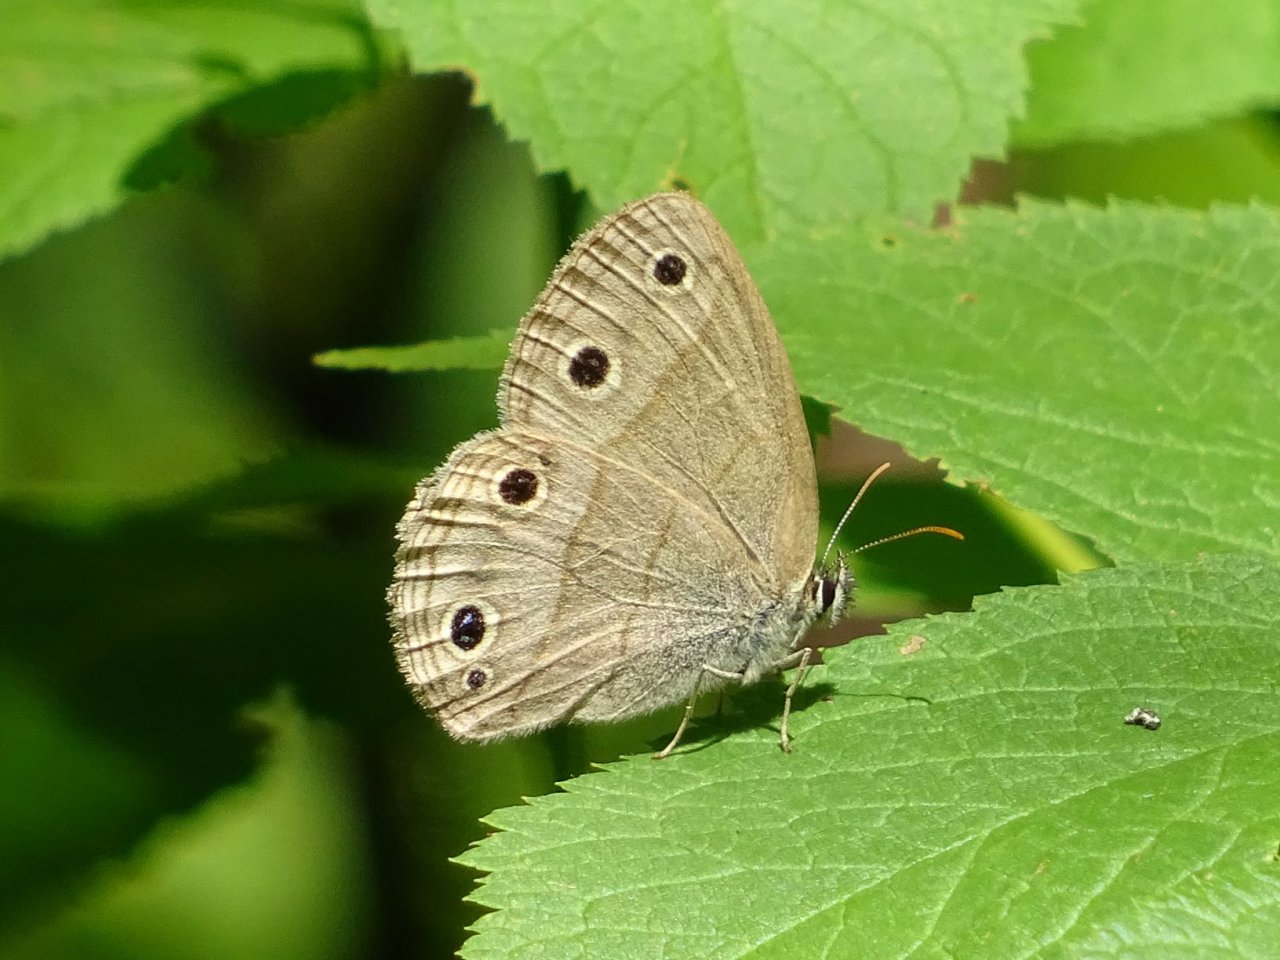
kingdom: Animalia
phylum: Arthropoda
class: Insecta
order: Lepidoptera
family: Nymphalidae
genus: Euptychia
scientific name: Euptychia cymela
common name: Little Wood Satyr
